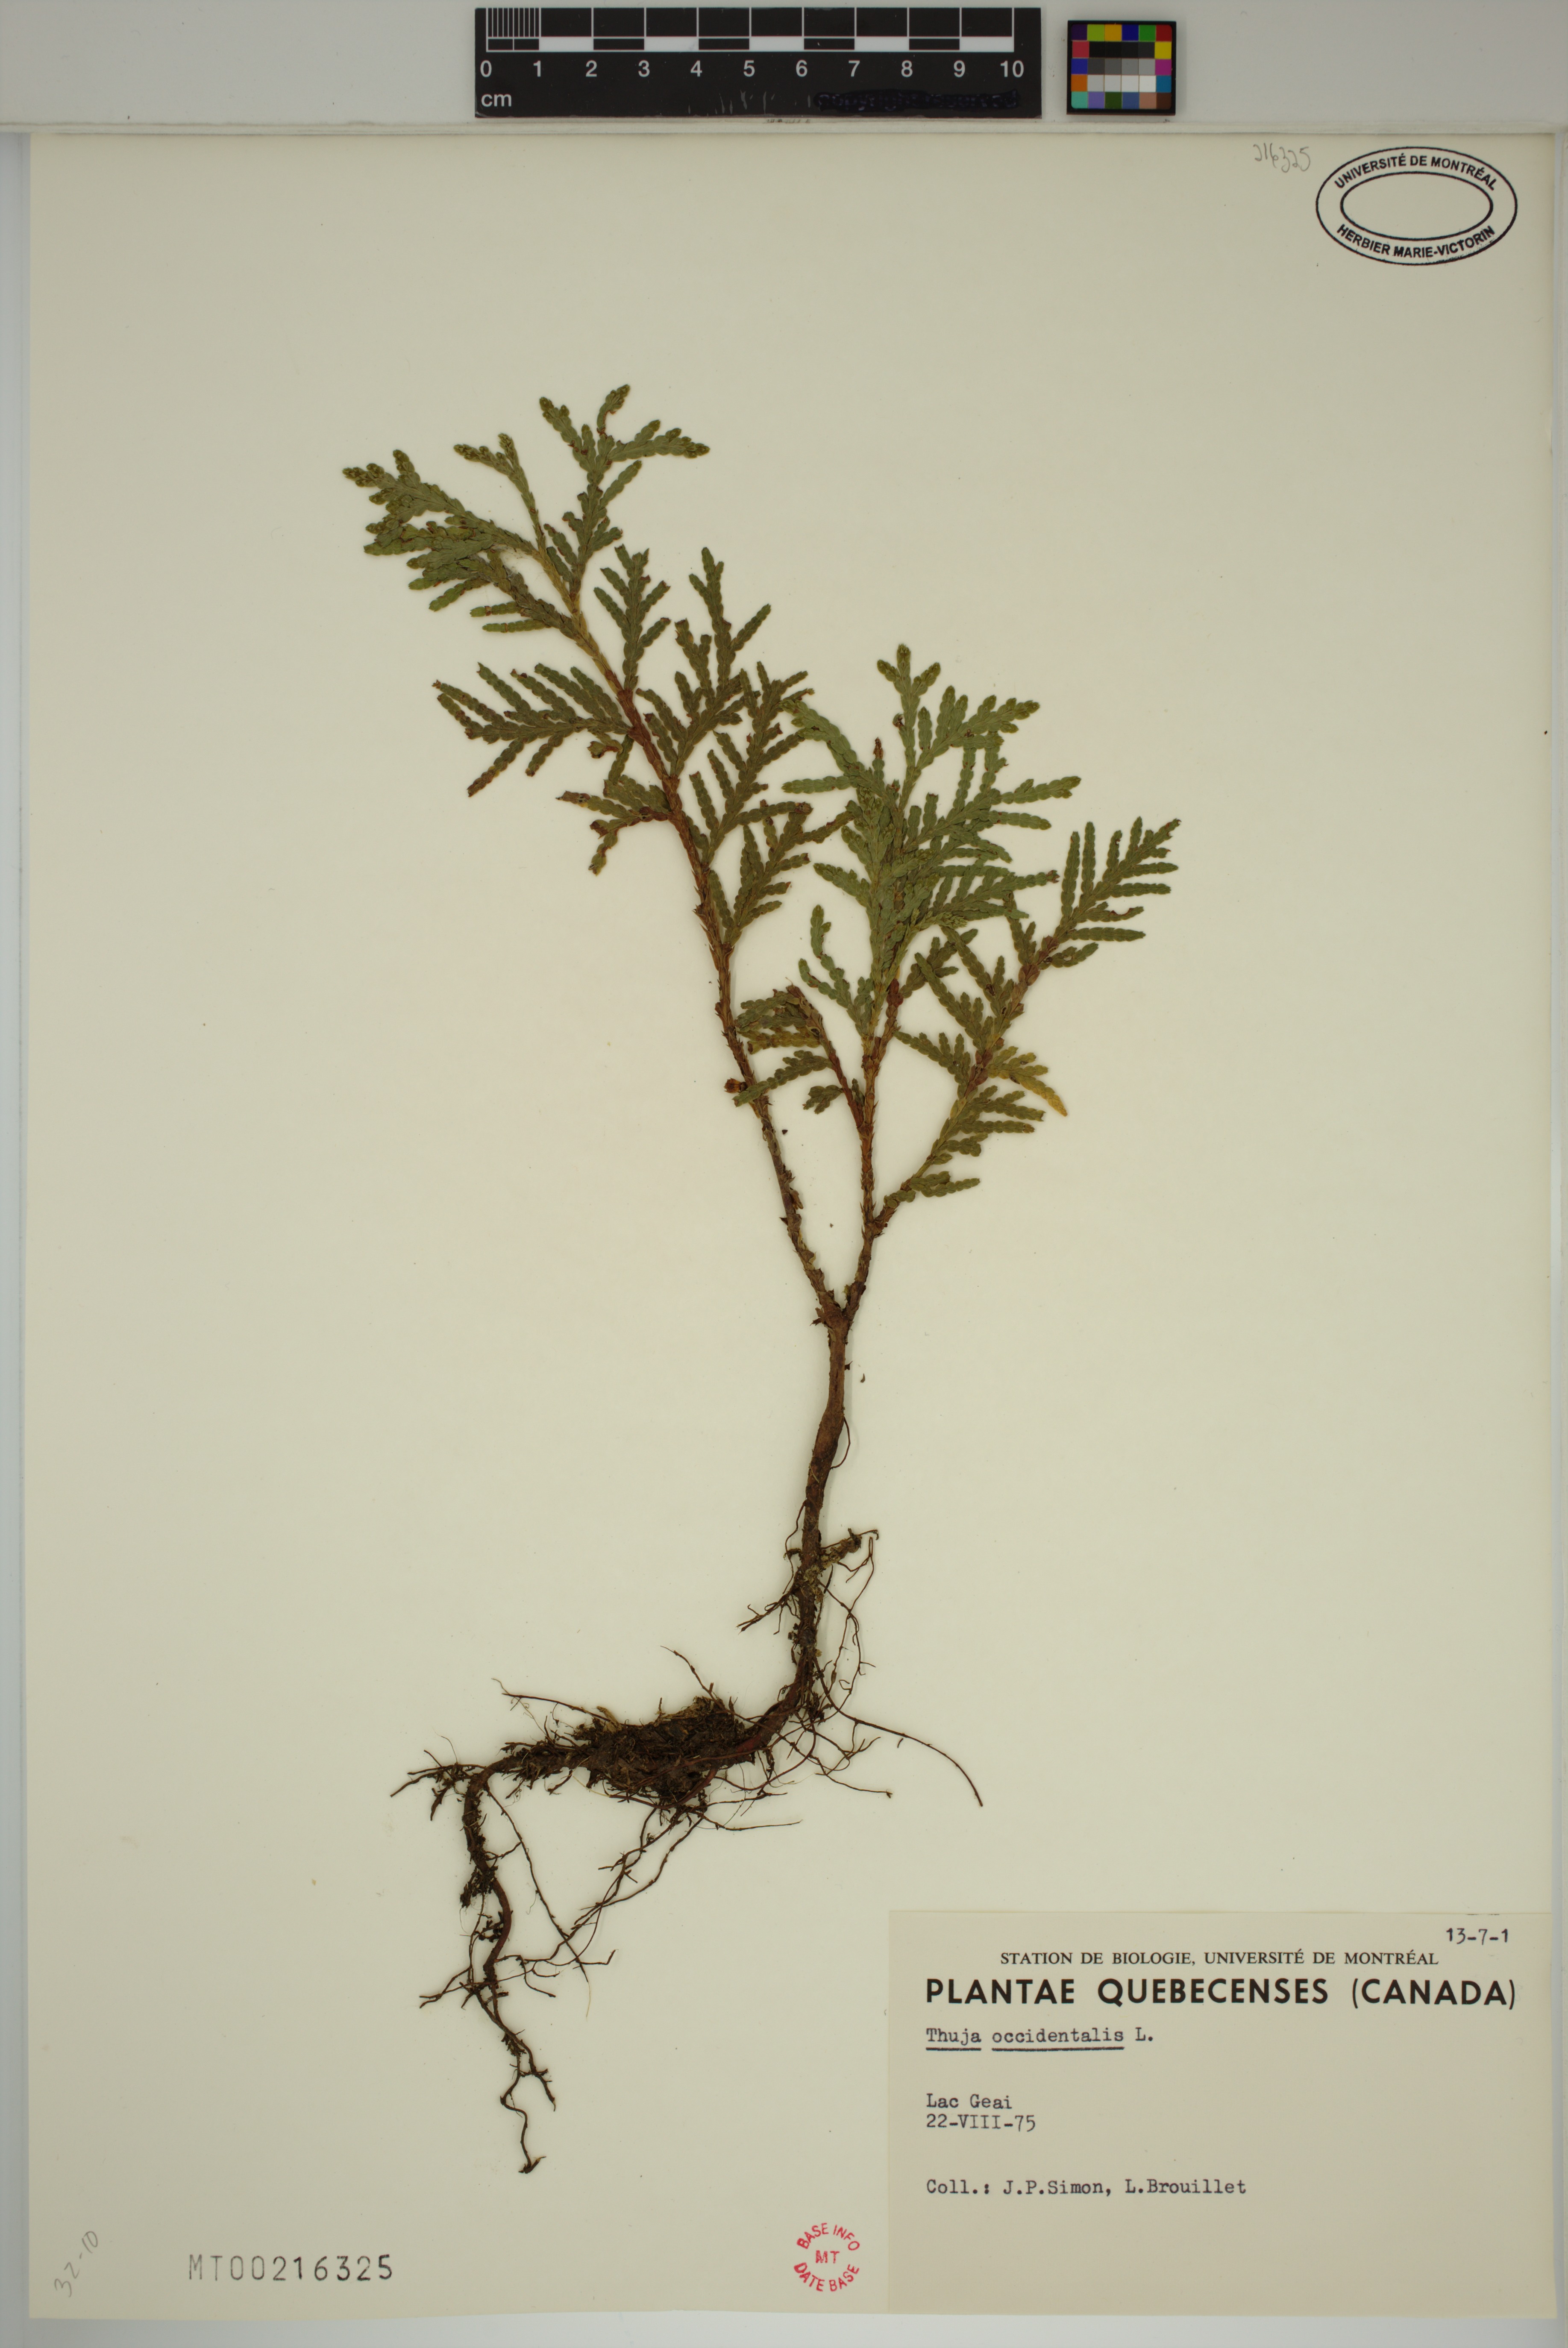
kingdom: Plantae
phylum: Tracheophyta
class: Pinopsida
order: Pinales
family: Cupressaceae
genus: Thuja
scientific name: Thuja occidentalis
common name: Northern white-cedar
